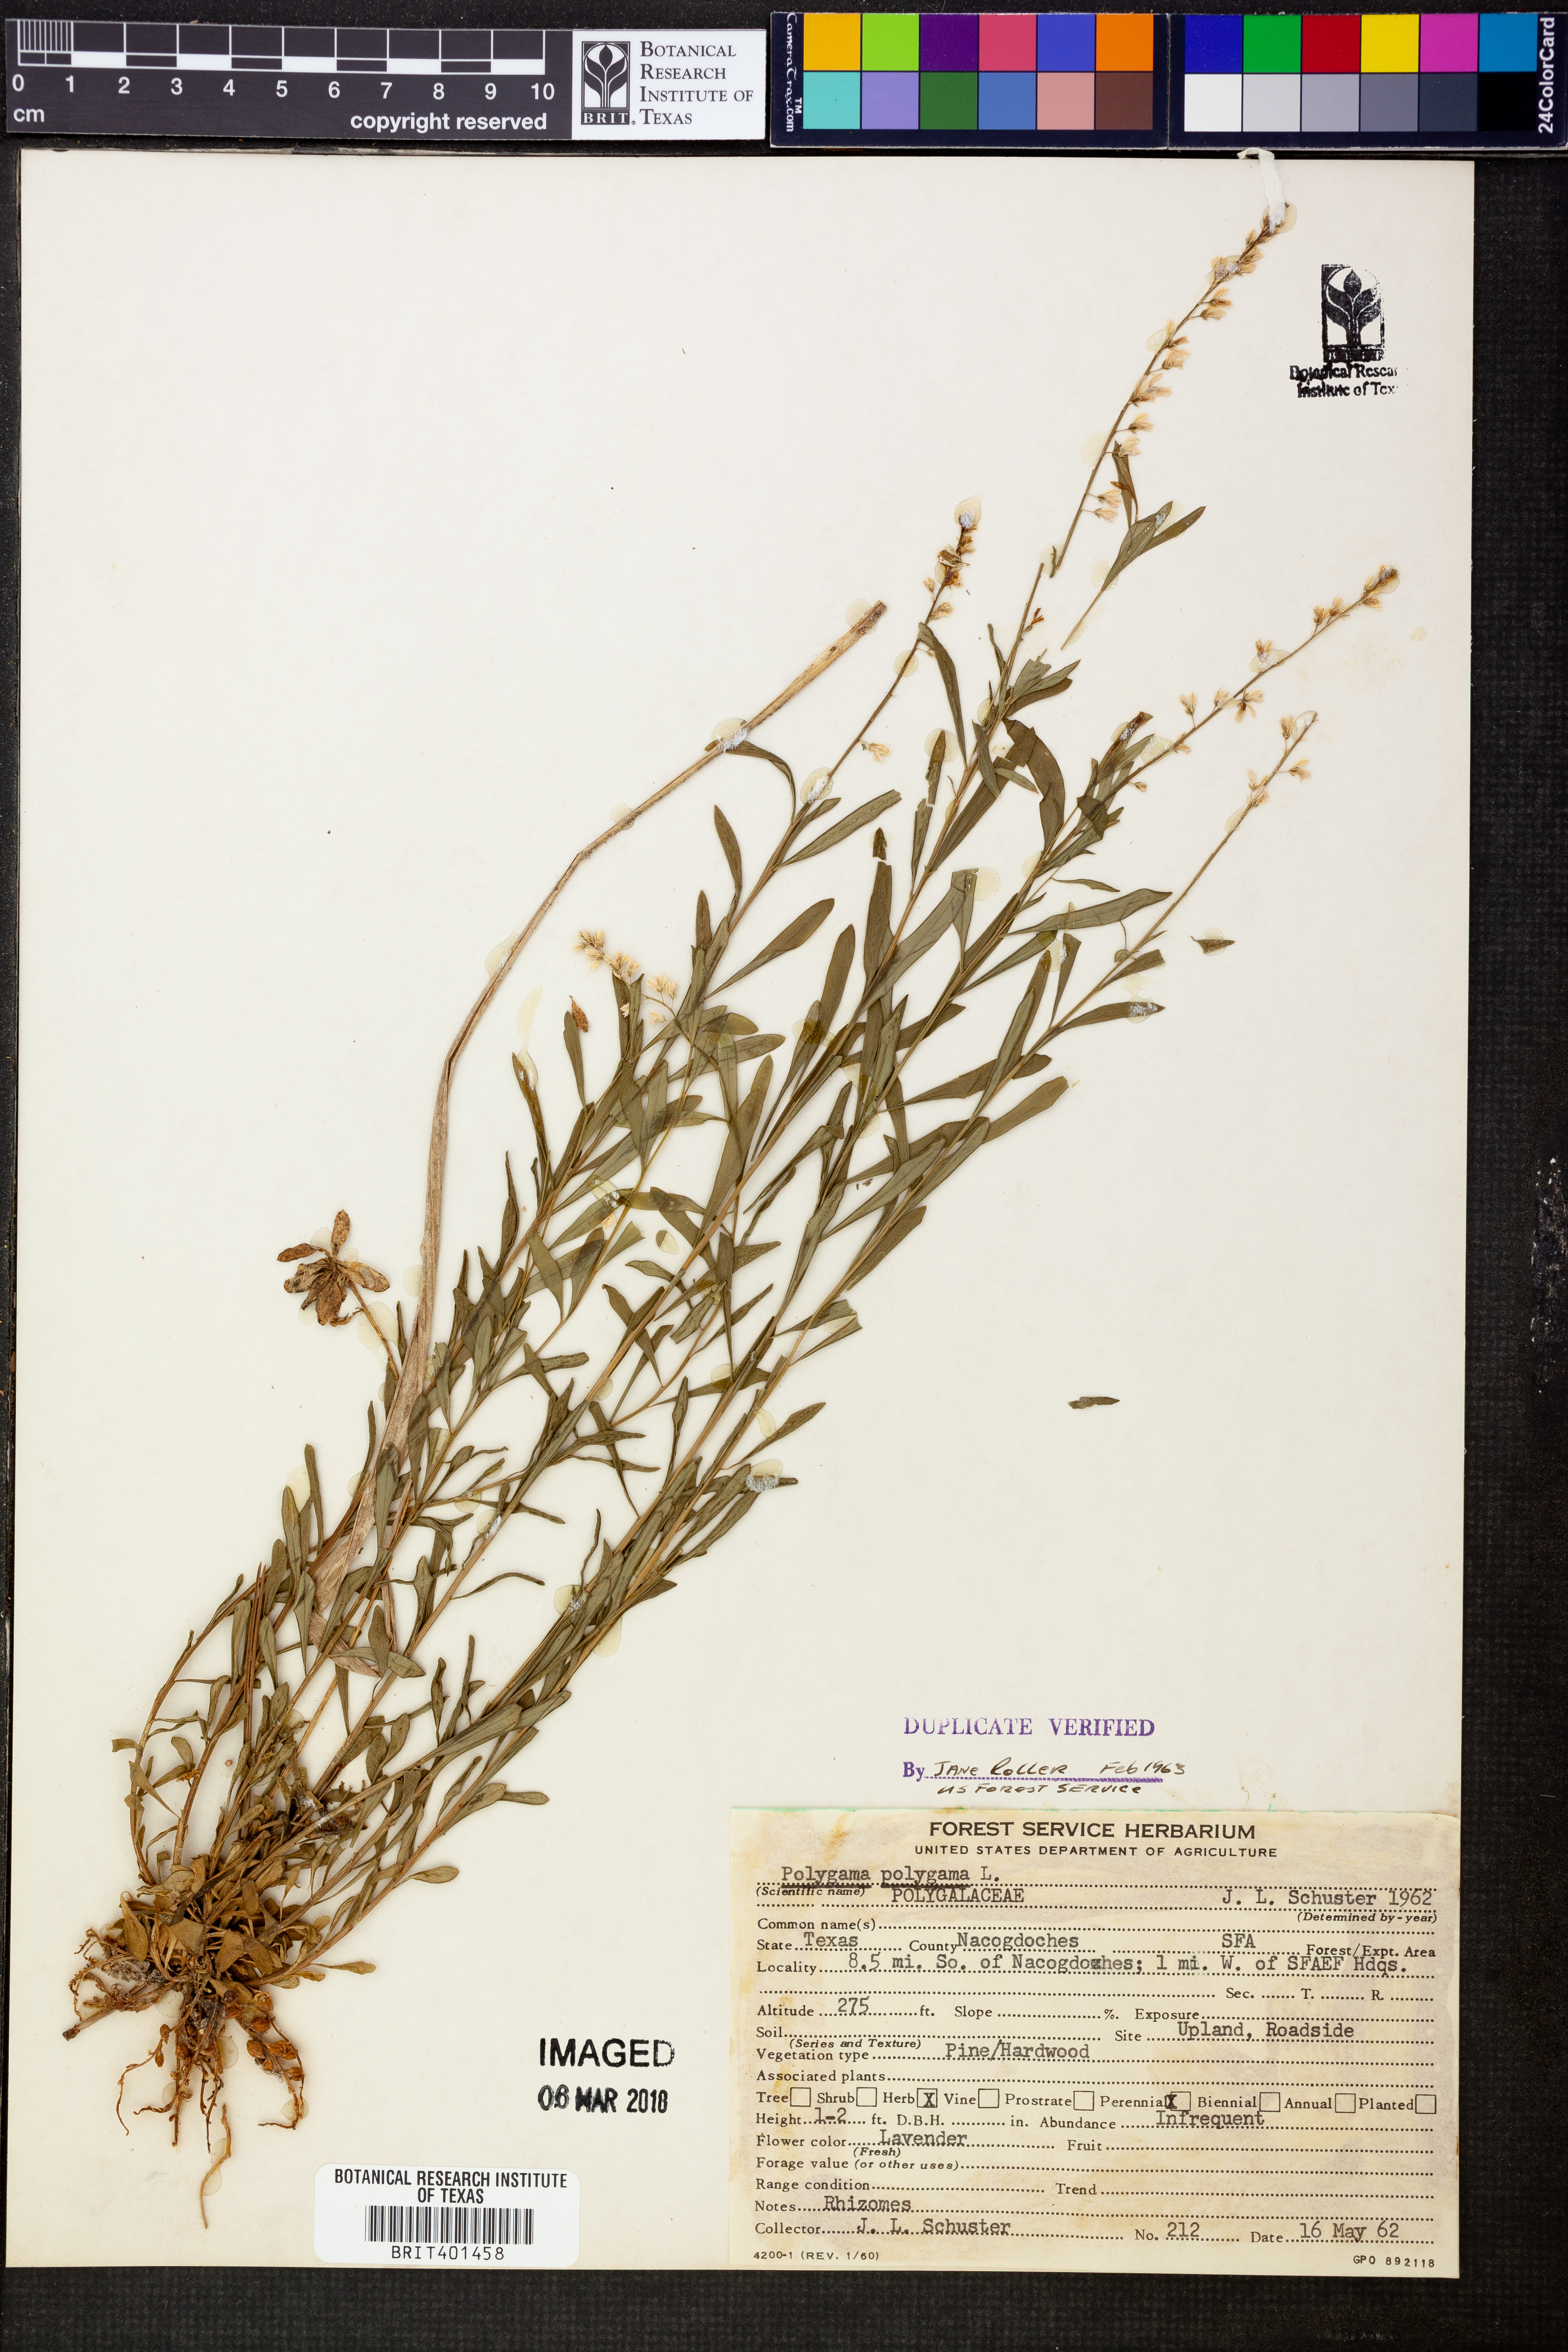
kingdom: Plantae
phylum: Tracheophyta
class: Magnoliopsida
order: Fabales
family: Polygalaceae
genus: Polygala
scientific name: Polygala polygama
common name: Bitter milkwort
